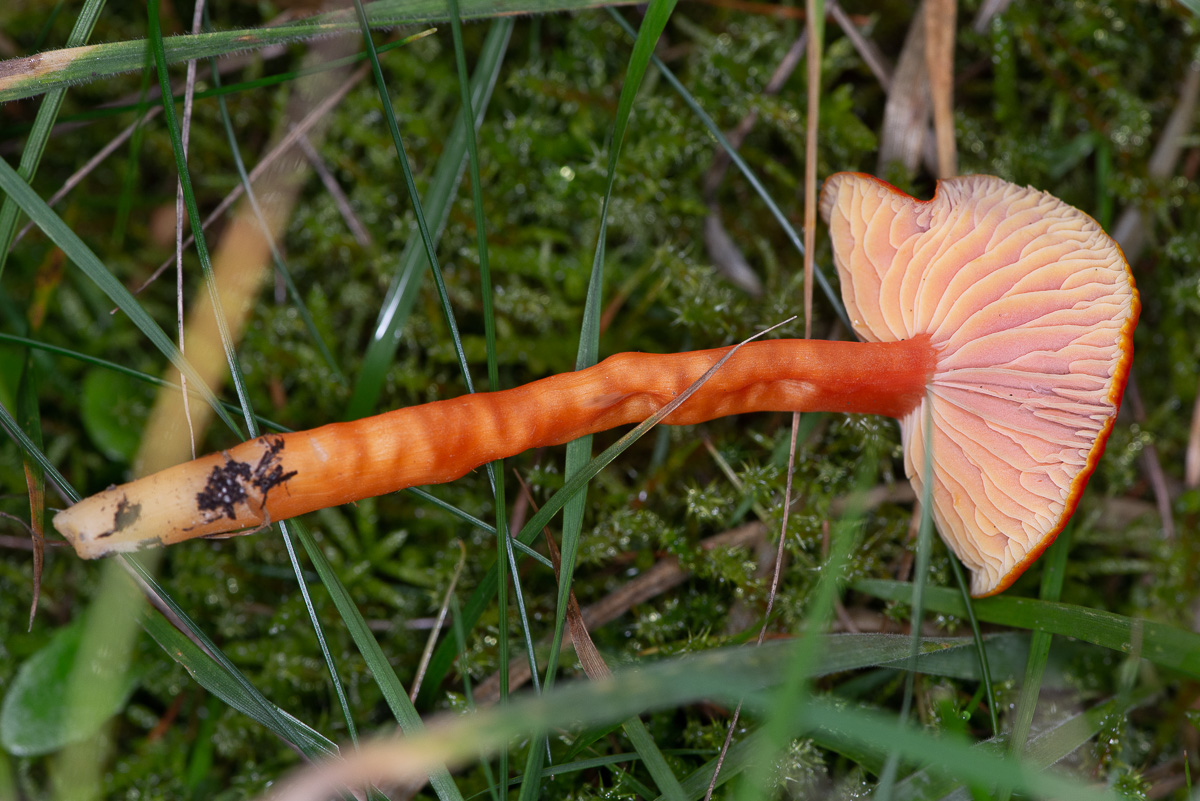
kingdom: Fungi
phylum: Basidiomycota
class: Agaricomycetes
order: Agaricales
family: Hygrophoraceae
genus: Hygrocybe
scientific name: Hygrocybe miniata
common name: mønje-vokshat
